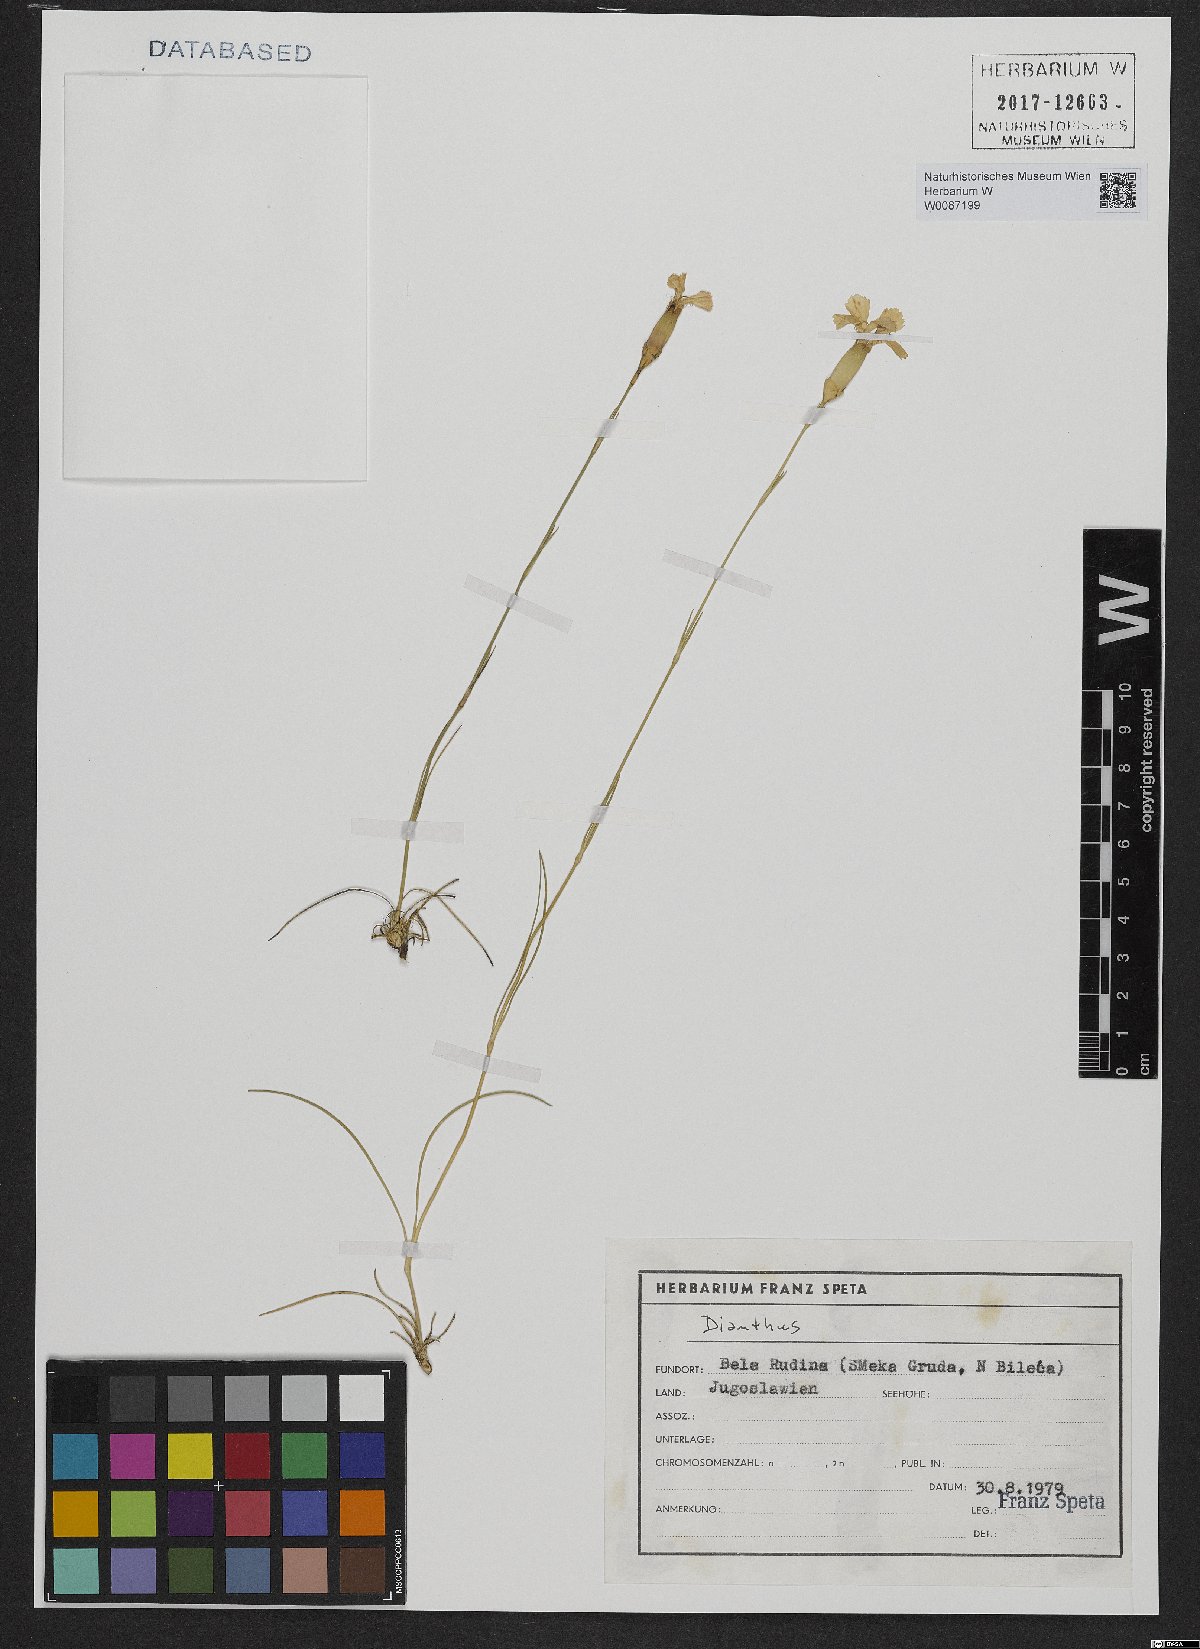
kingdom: Plantae
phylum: Tracheophyta
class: Magnoliopsida
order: Caryophyllales
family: Caryophyllaceae
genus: Dianthus
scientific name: Dianthus
